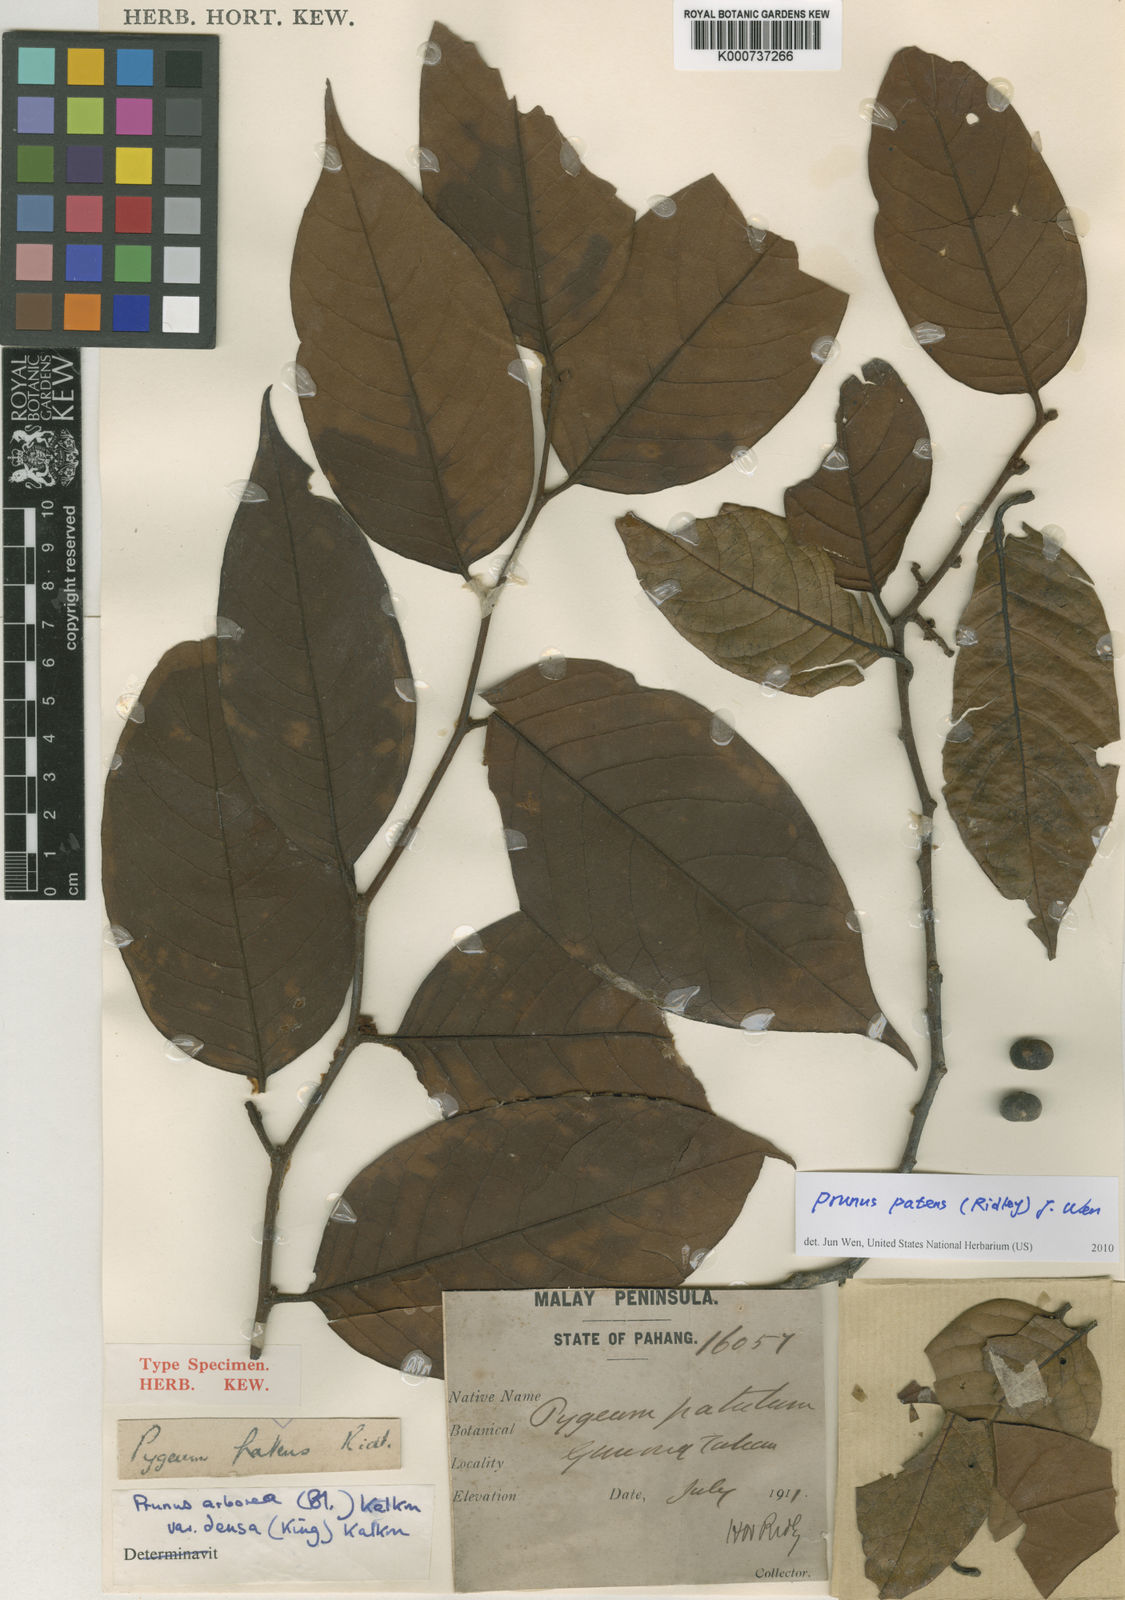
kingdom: Plantae
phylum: Tracheophyta
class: Magnoliopsida
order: Rosales
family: Rosaceae
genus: Prunus
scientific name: Prunus
